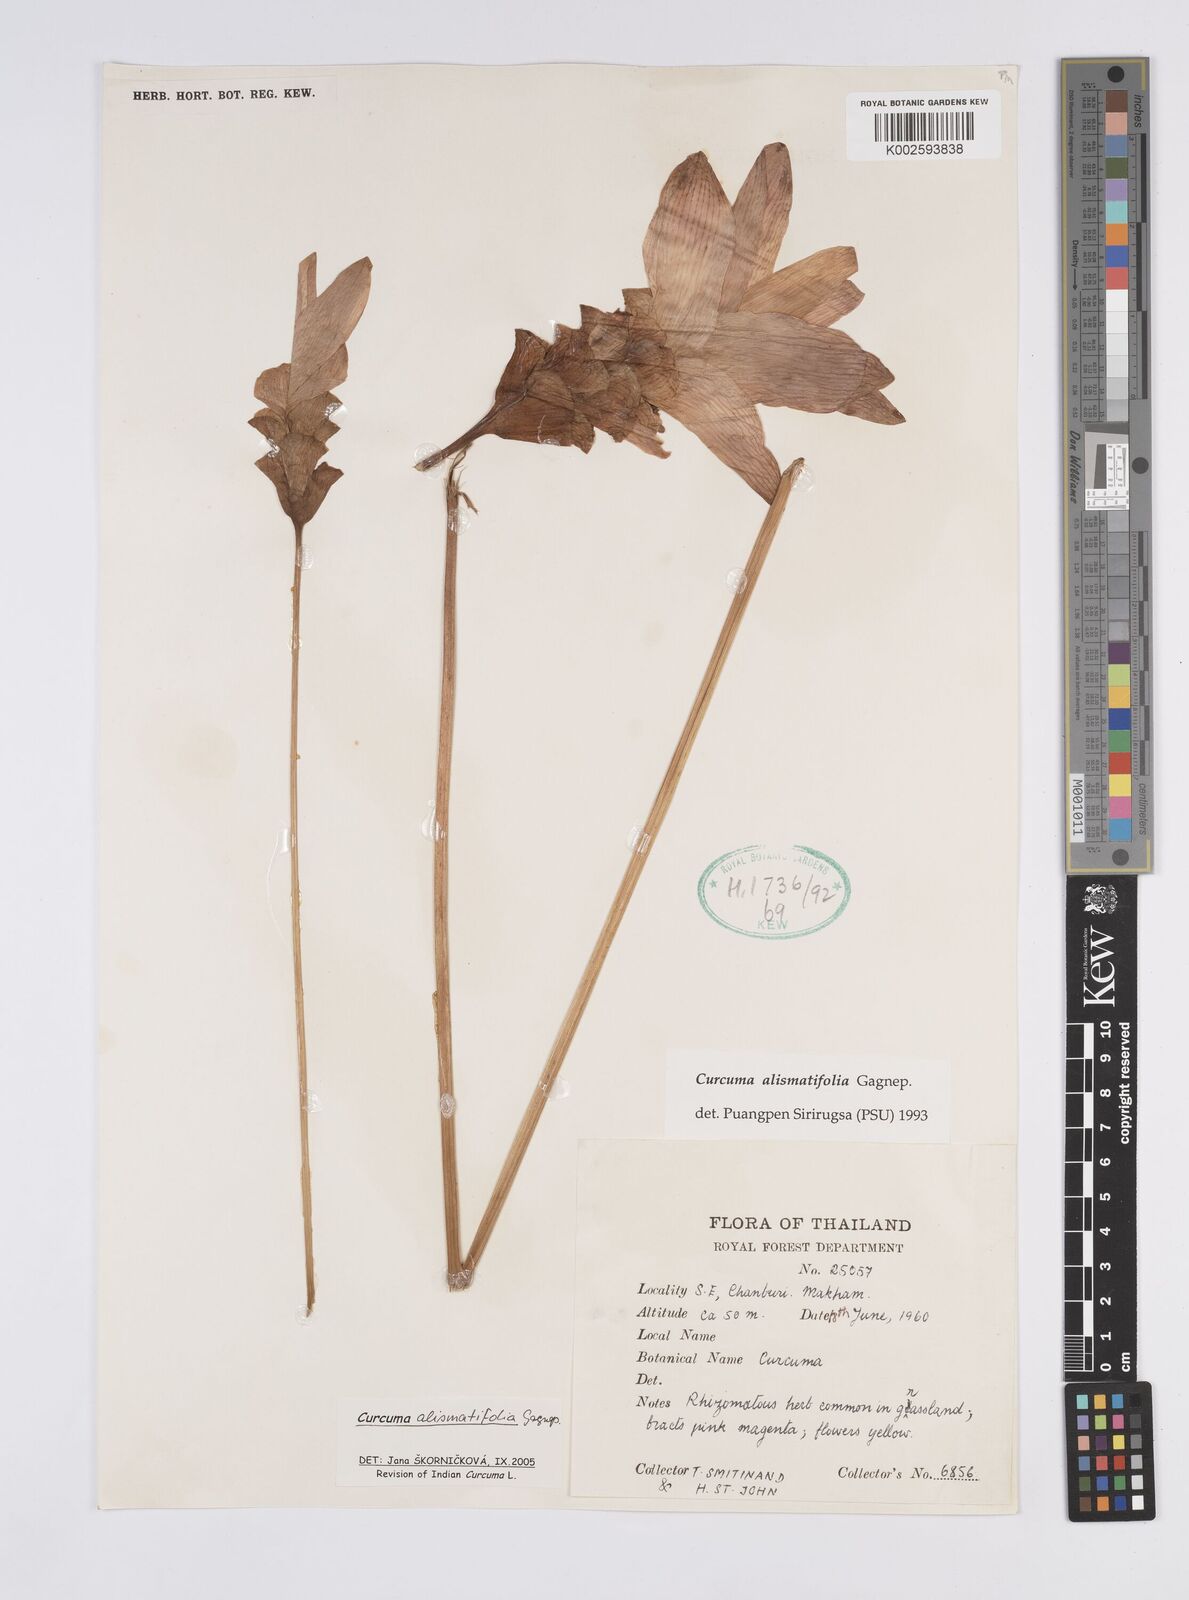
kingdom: Plantae
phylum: Tracheophyta
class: Liliopsida
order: Zingiberales
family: Zingiberaceae
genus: Curcuma
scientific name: Curcuma alismatifolia
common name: Siam tulip
